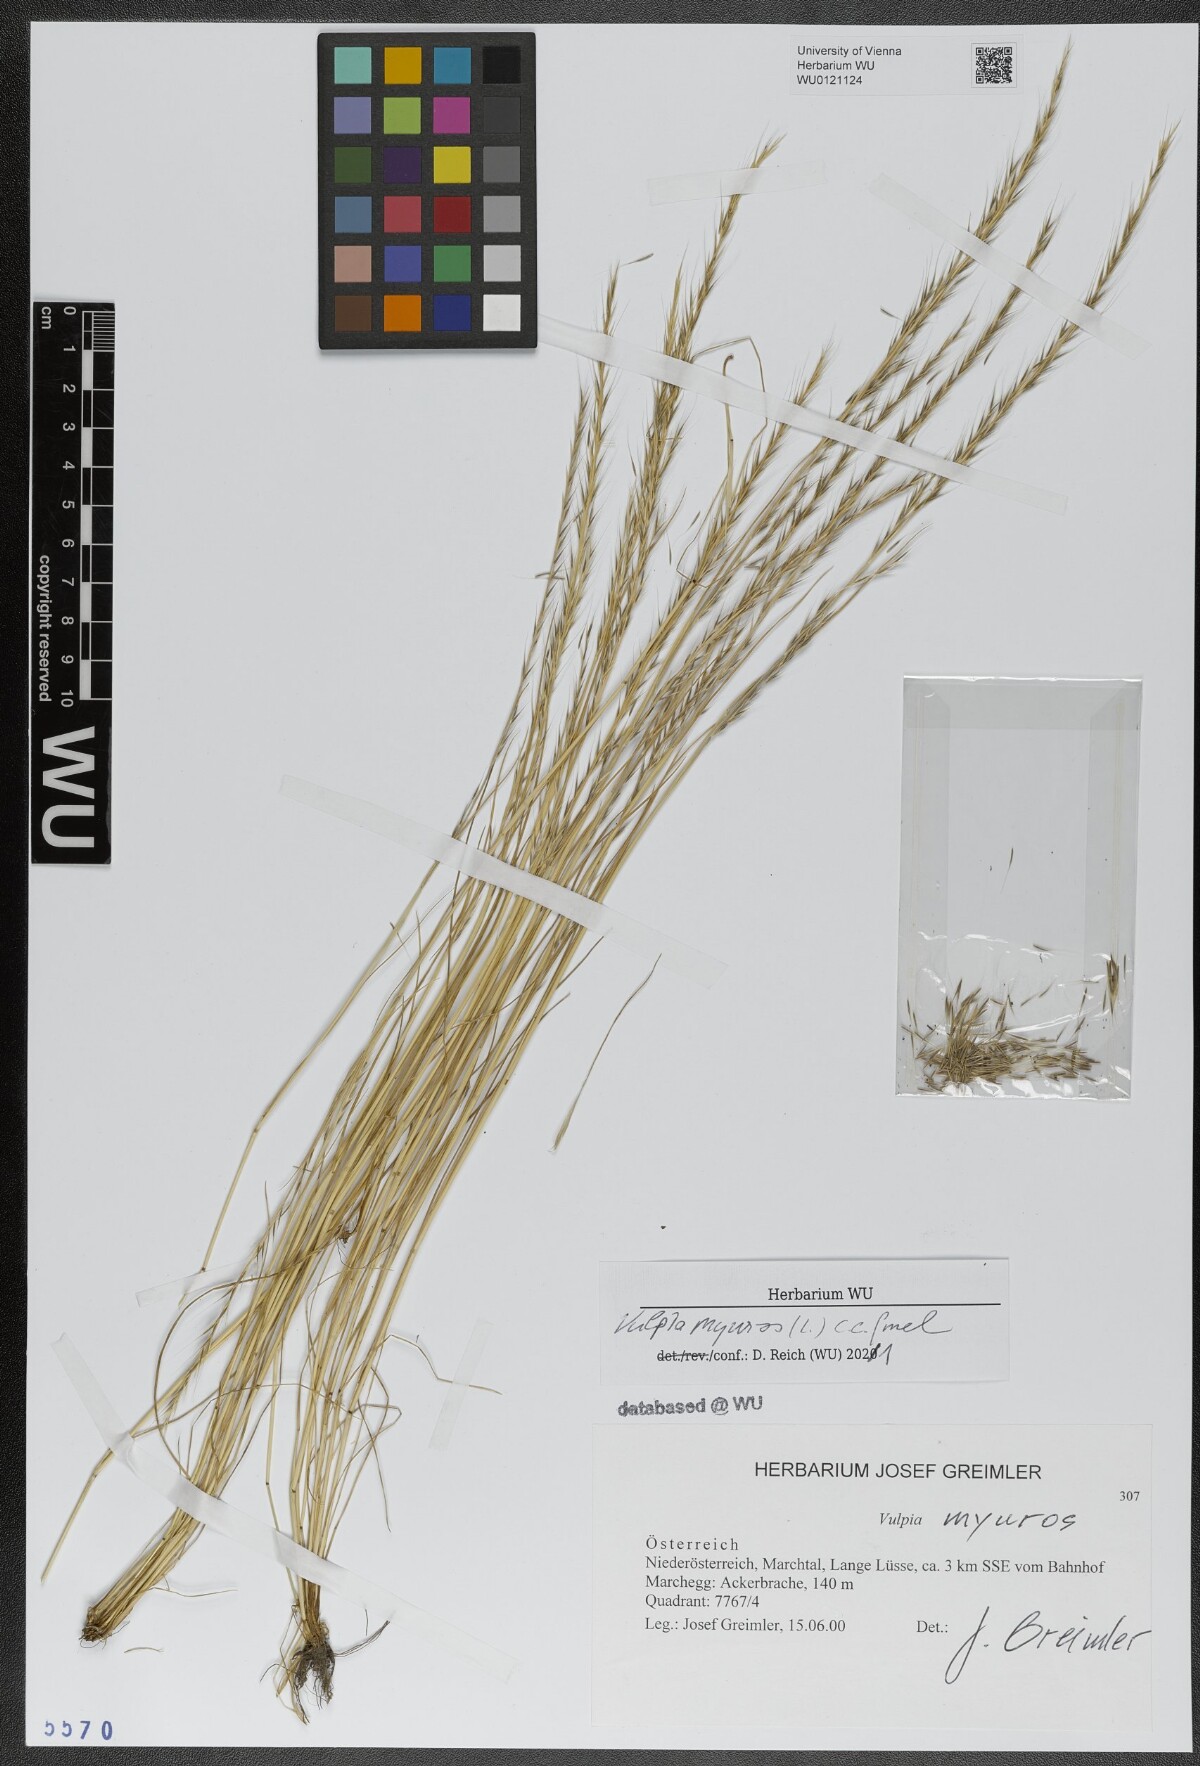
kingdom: Plantae
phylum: Tracheophyta
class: Liliopsida
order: Poales
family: Poaceae
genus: Festuca
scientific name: Festuca myuros
